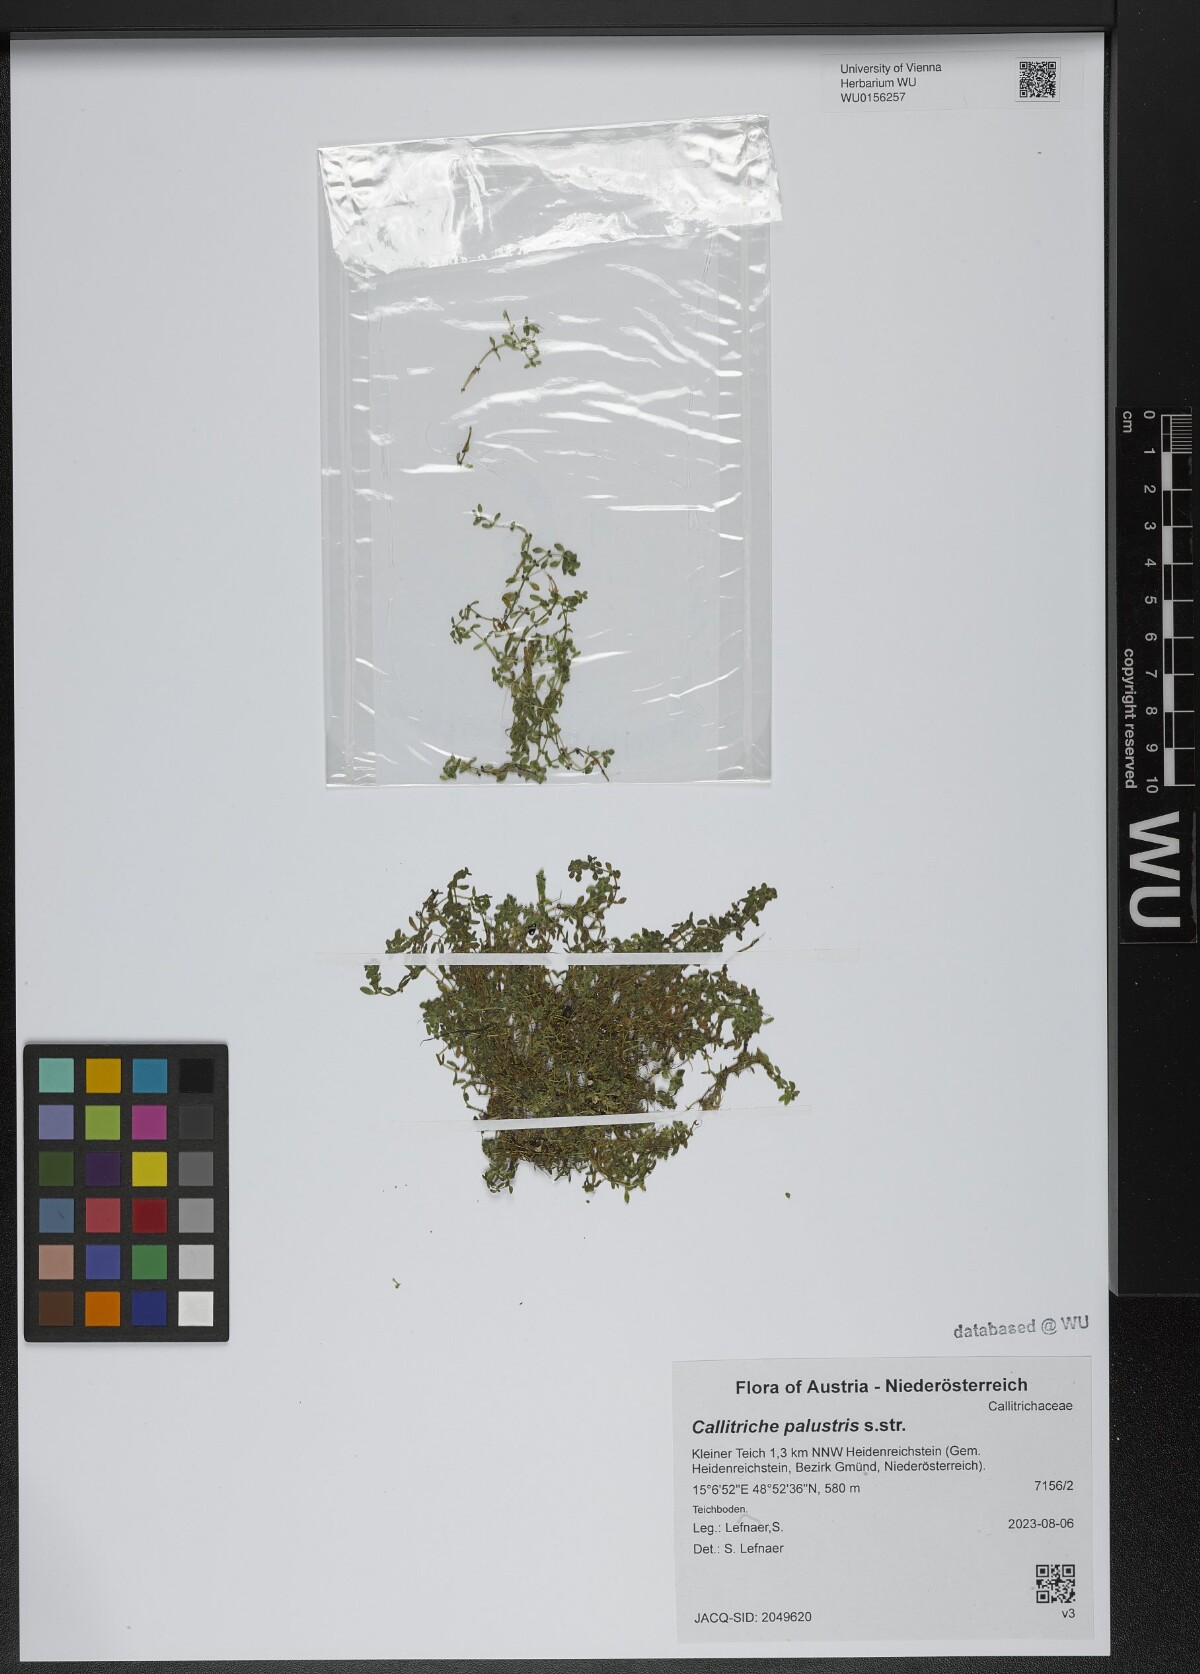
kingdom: Plantae
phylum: Tracheophyta
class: Magnoliopsida
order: Lamiales
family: Plantaginaceae
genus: Callitriche
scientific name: Callitriche palustris
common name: Spring water-starwort
